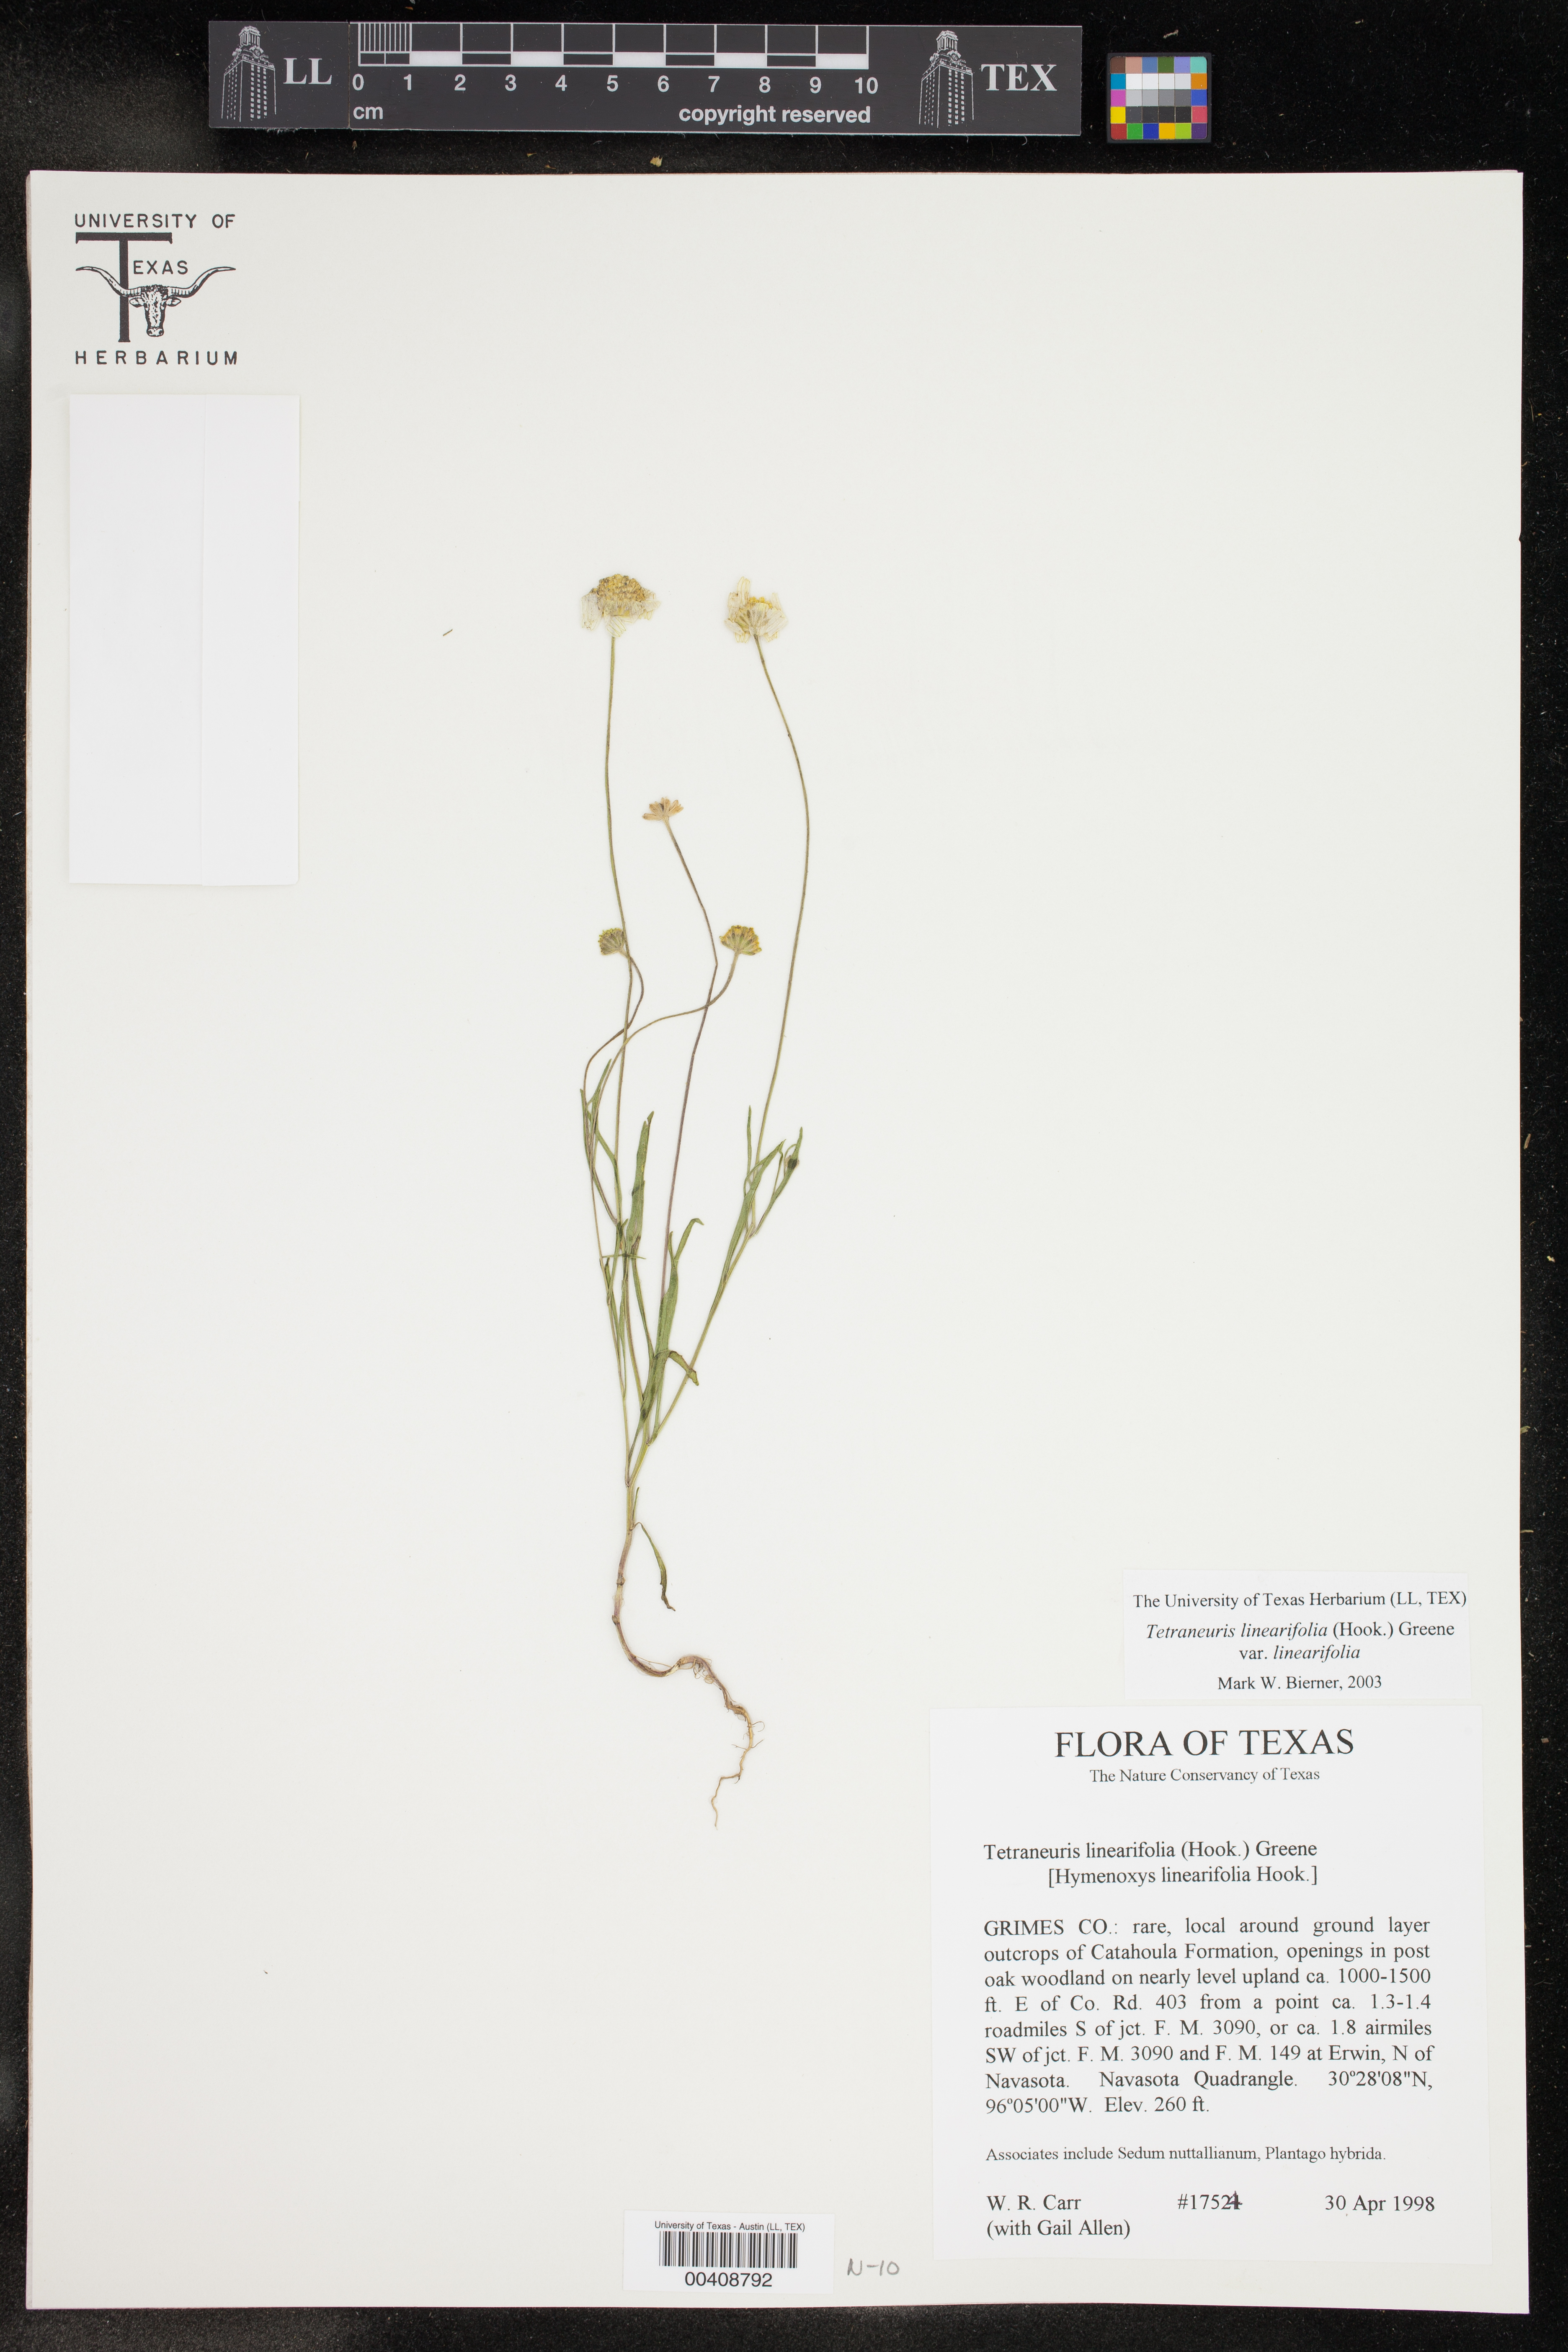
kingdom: Plantae
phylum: Tracheophyta
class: Magnoliopsida
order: Asterales
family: Asteraceae
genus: Tetraneuris
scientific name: Tetraneuris linearifolia
